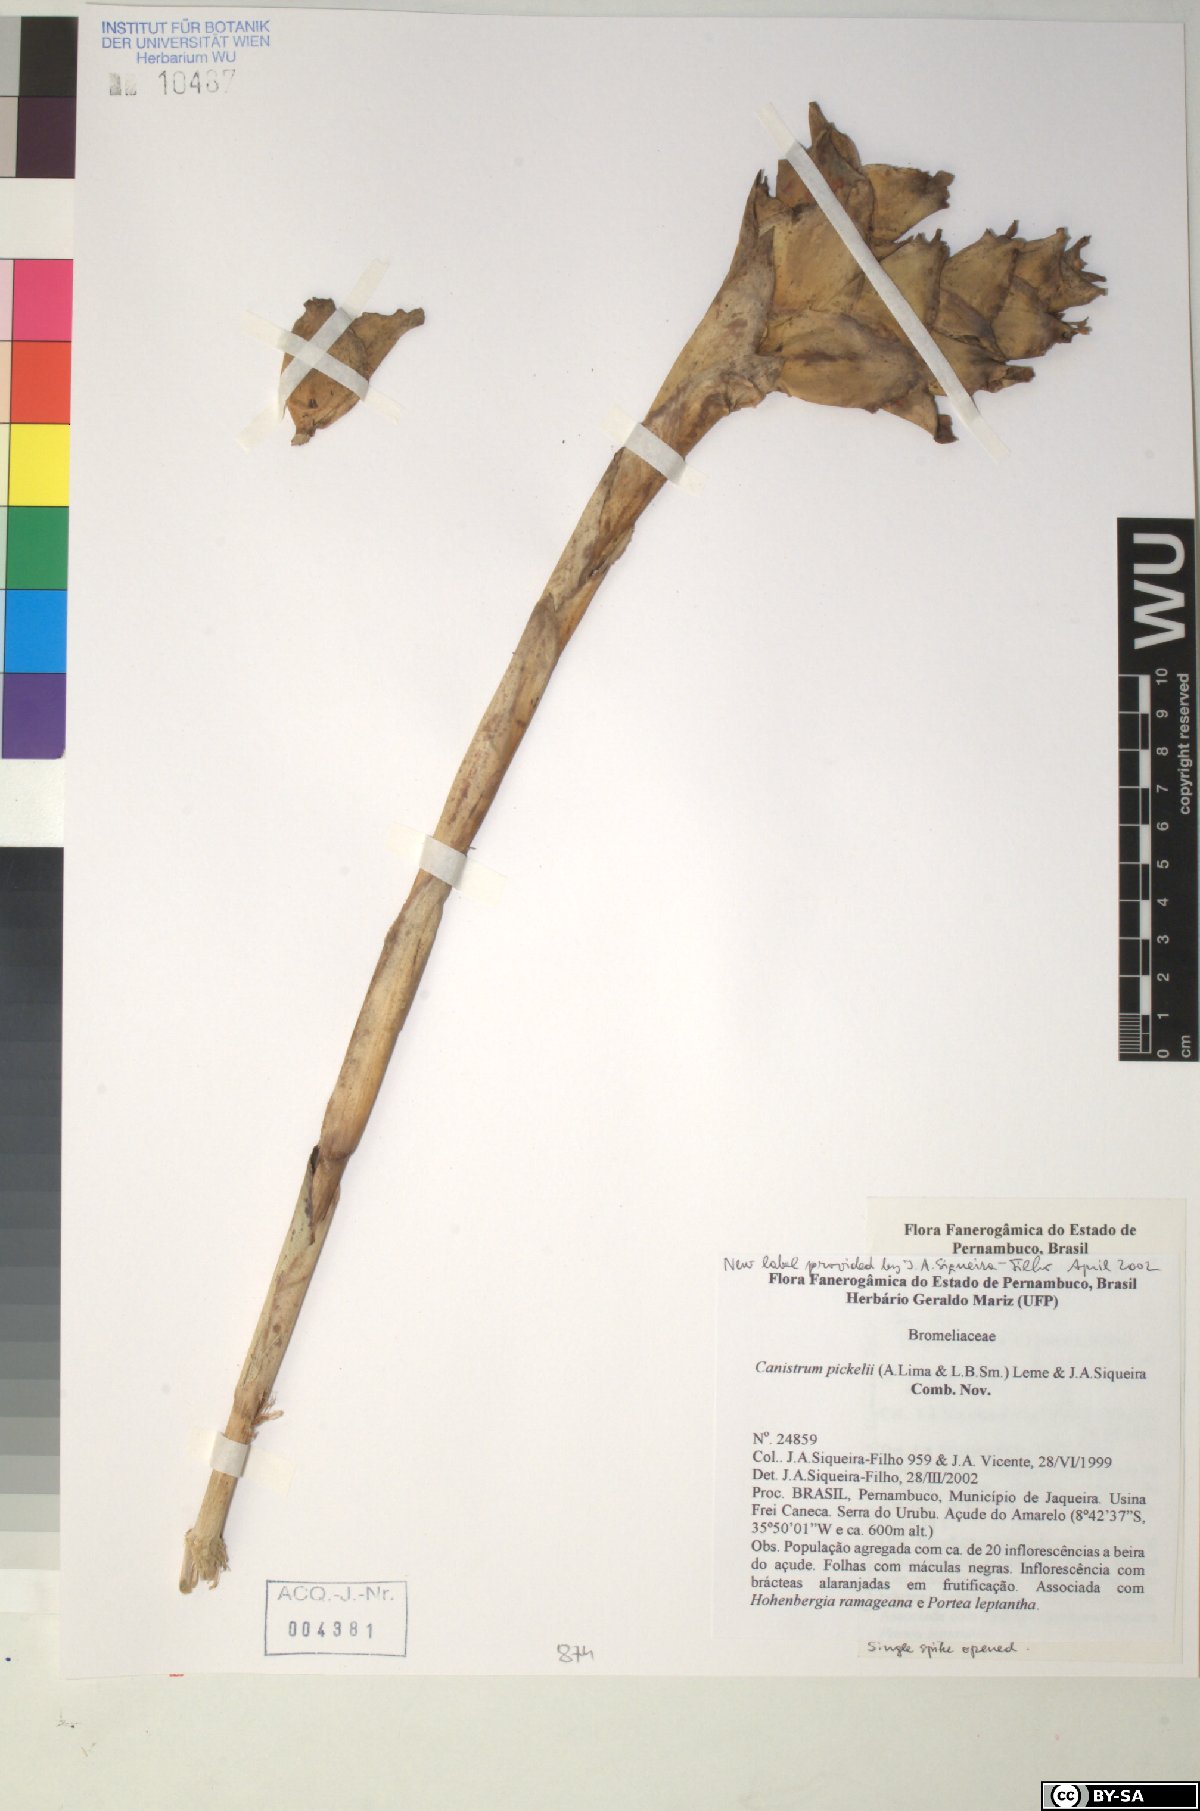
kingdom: Plantae
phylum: Tracheophyta
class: Liliopsida
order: Poales
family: Bromeliaceae
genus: Canistrum
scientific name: Canistrum pickelii
